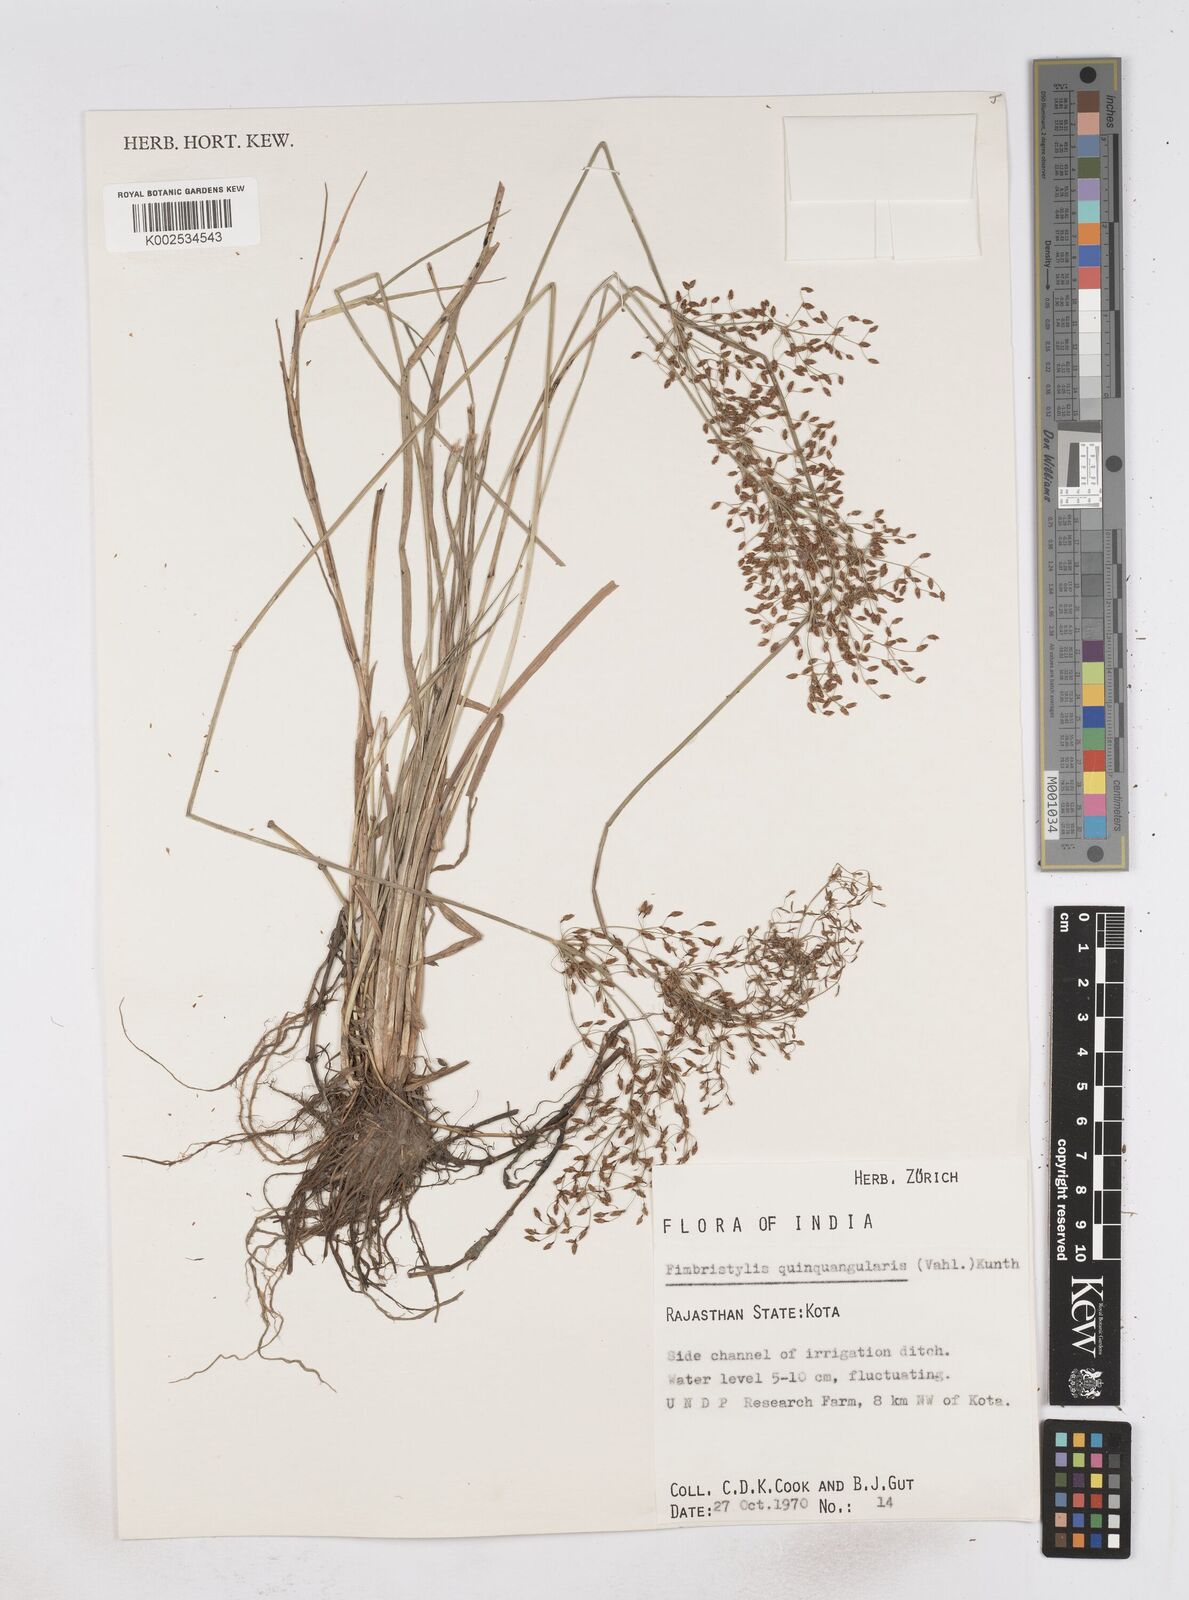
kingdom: Plantae
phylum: Tracheophyta
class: Liliopsida
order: Poales
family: Cyperaceae
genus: Fimbristylis
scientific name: Fimbristylis quinquangularis
